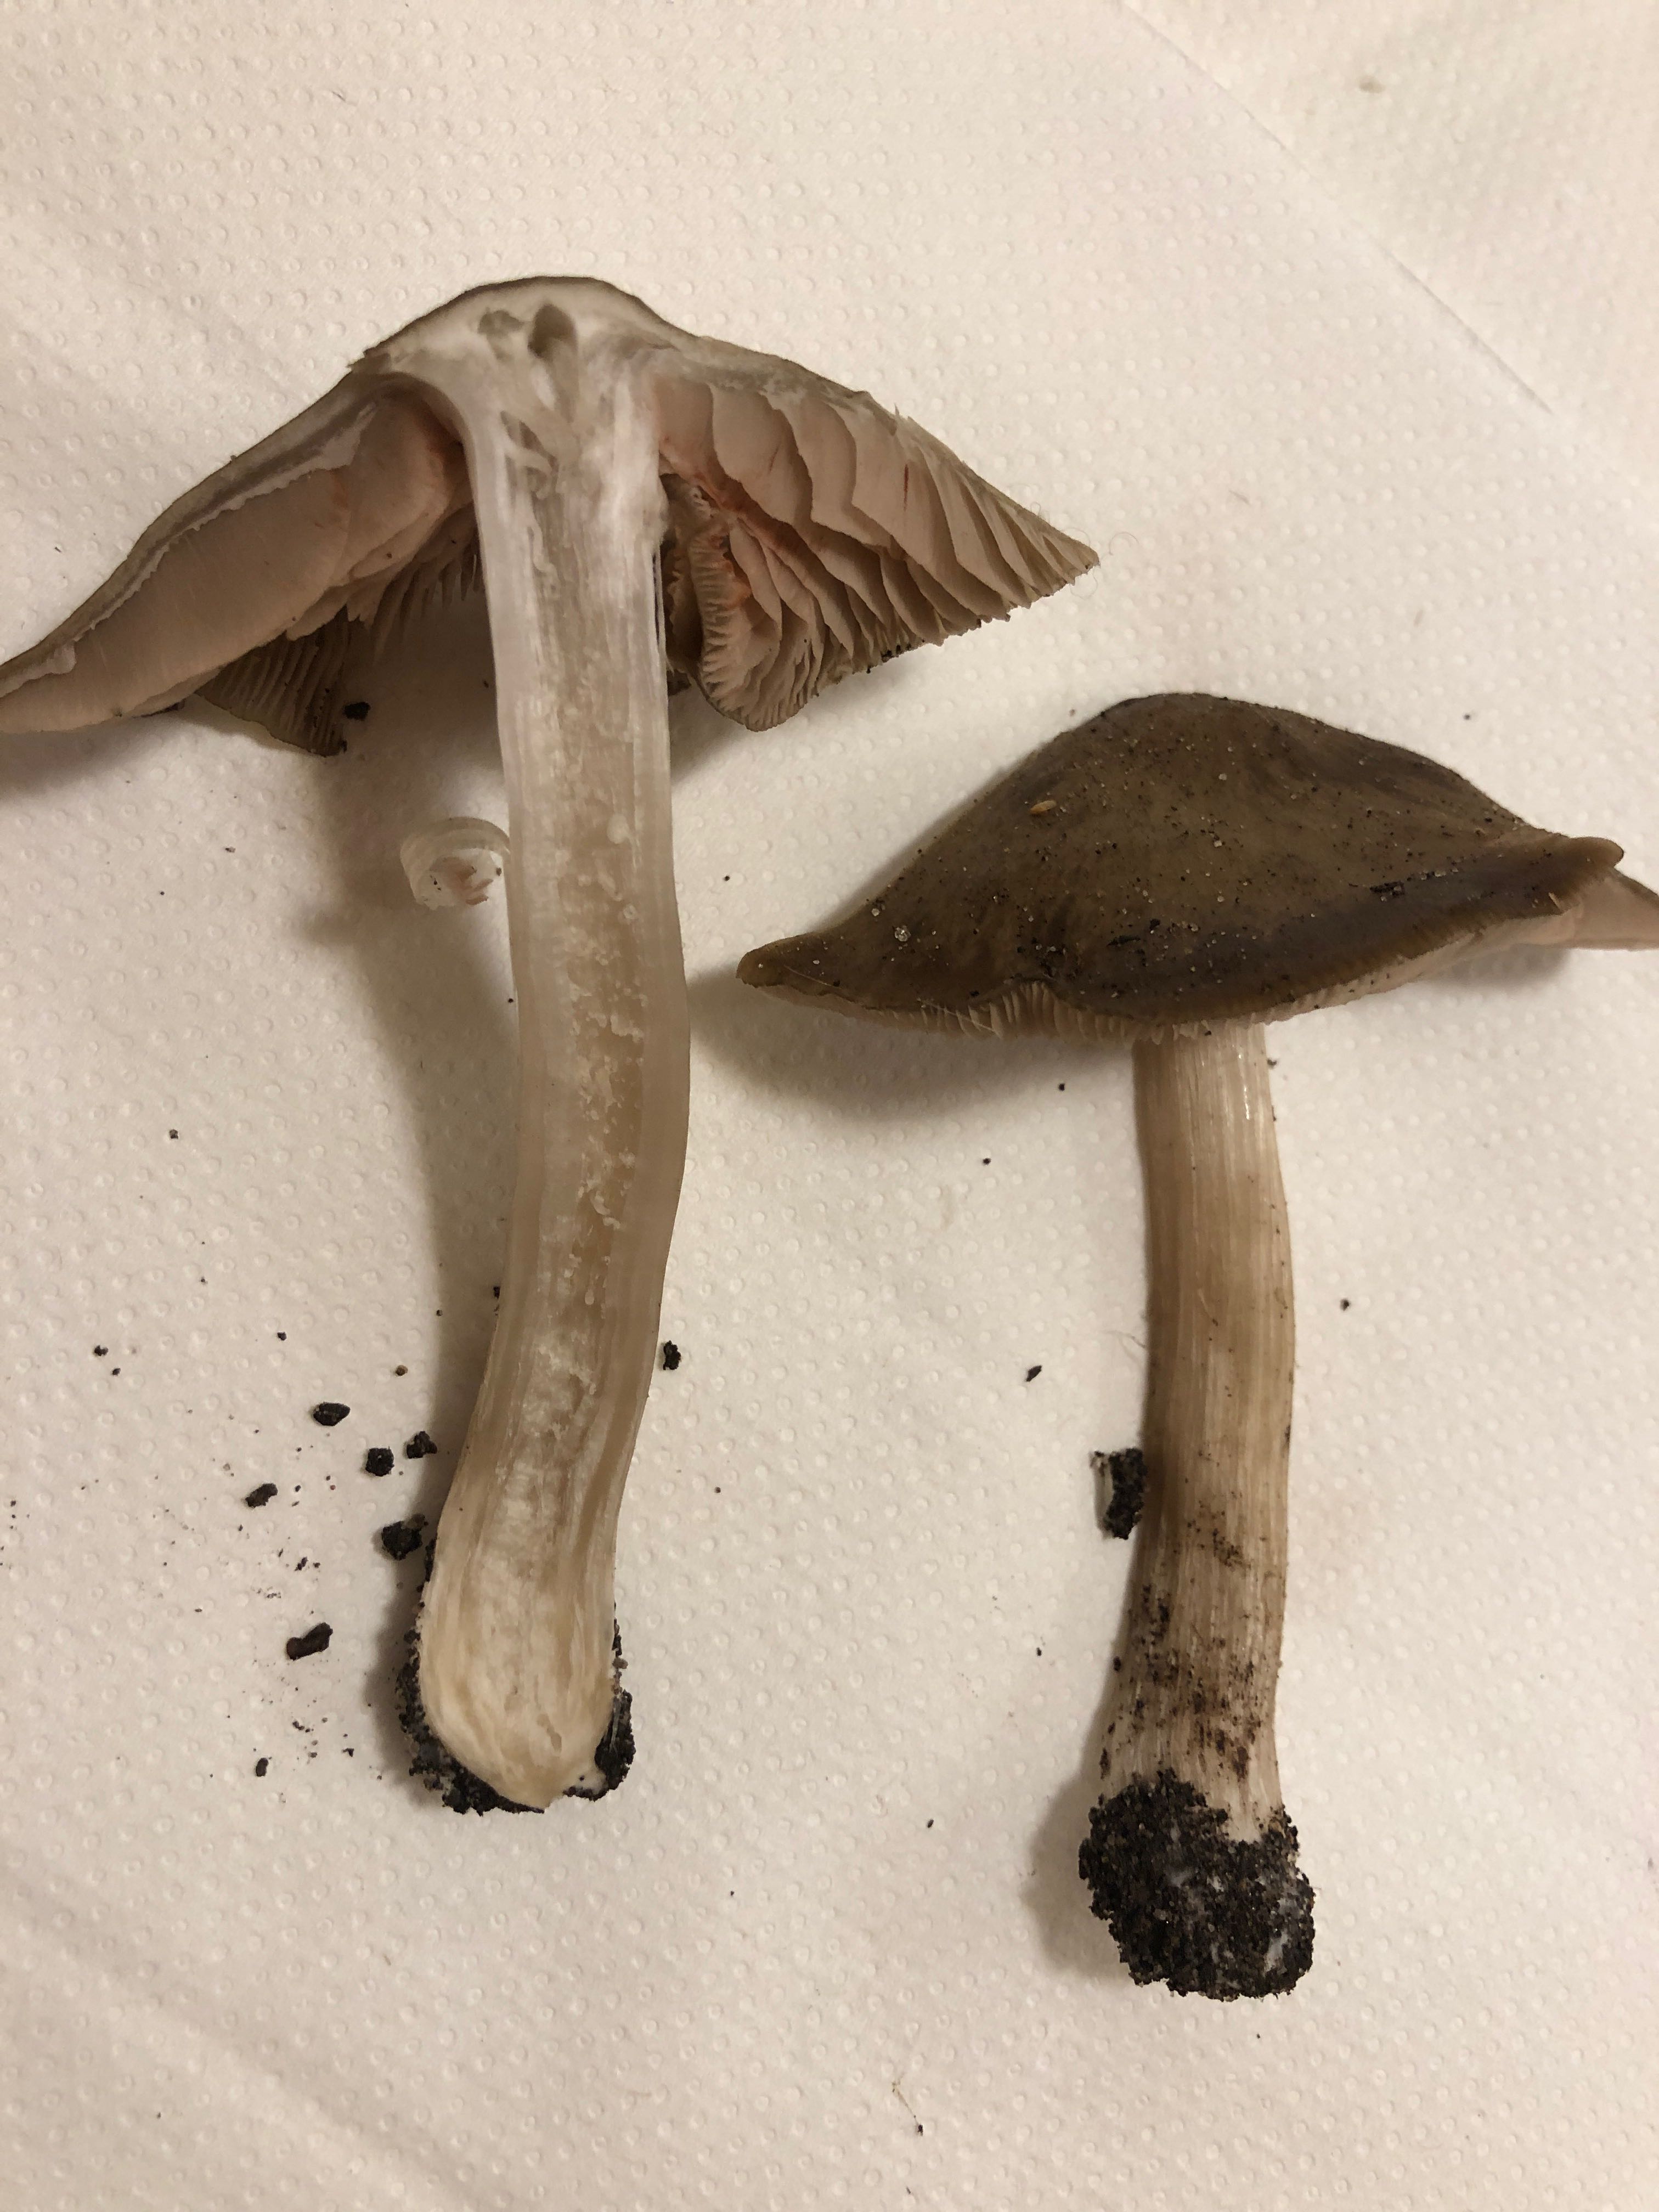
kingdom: Fungi
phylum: Basidiomycota
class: Agaricomycetes
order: Agaricales
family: Entolomataceae
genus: Entoloma
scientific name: Entoloma
